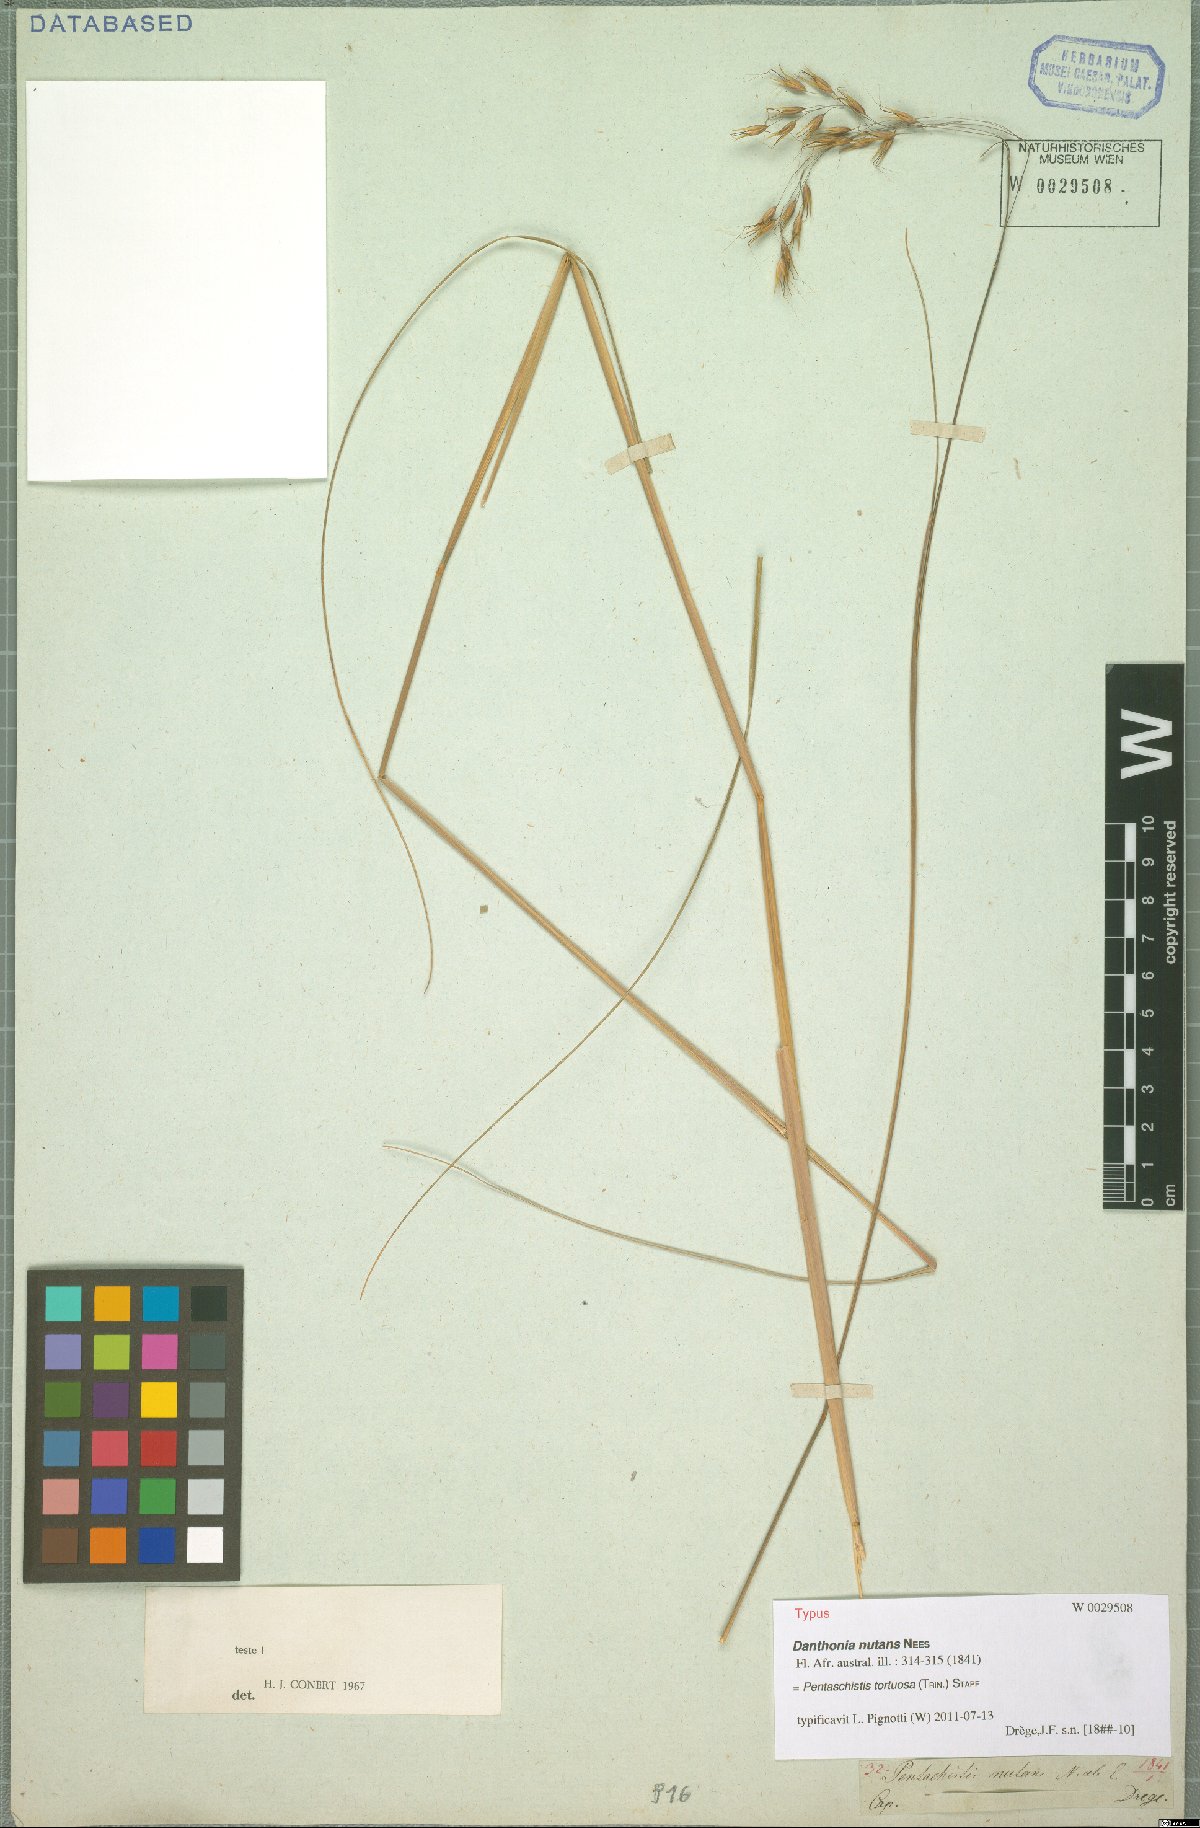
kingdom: Plantae
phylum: Tracheophyta
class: Liliopsida
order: Poales
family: Poaceae
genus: Pentameris
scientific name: Pentameris tortuosa
